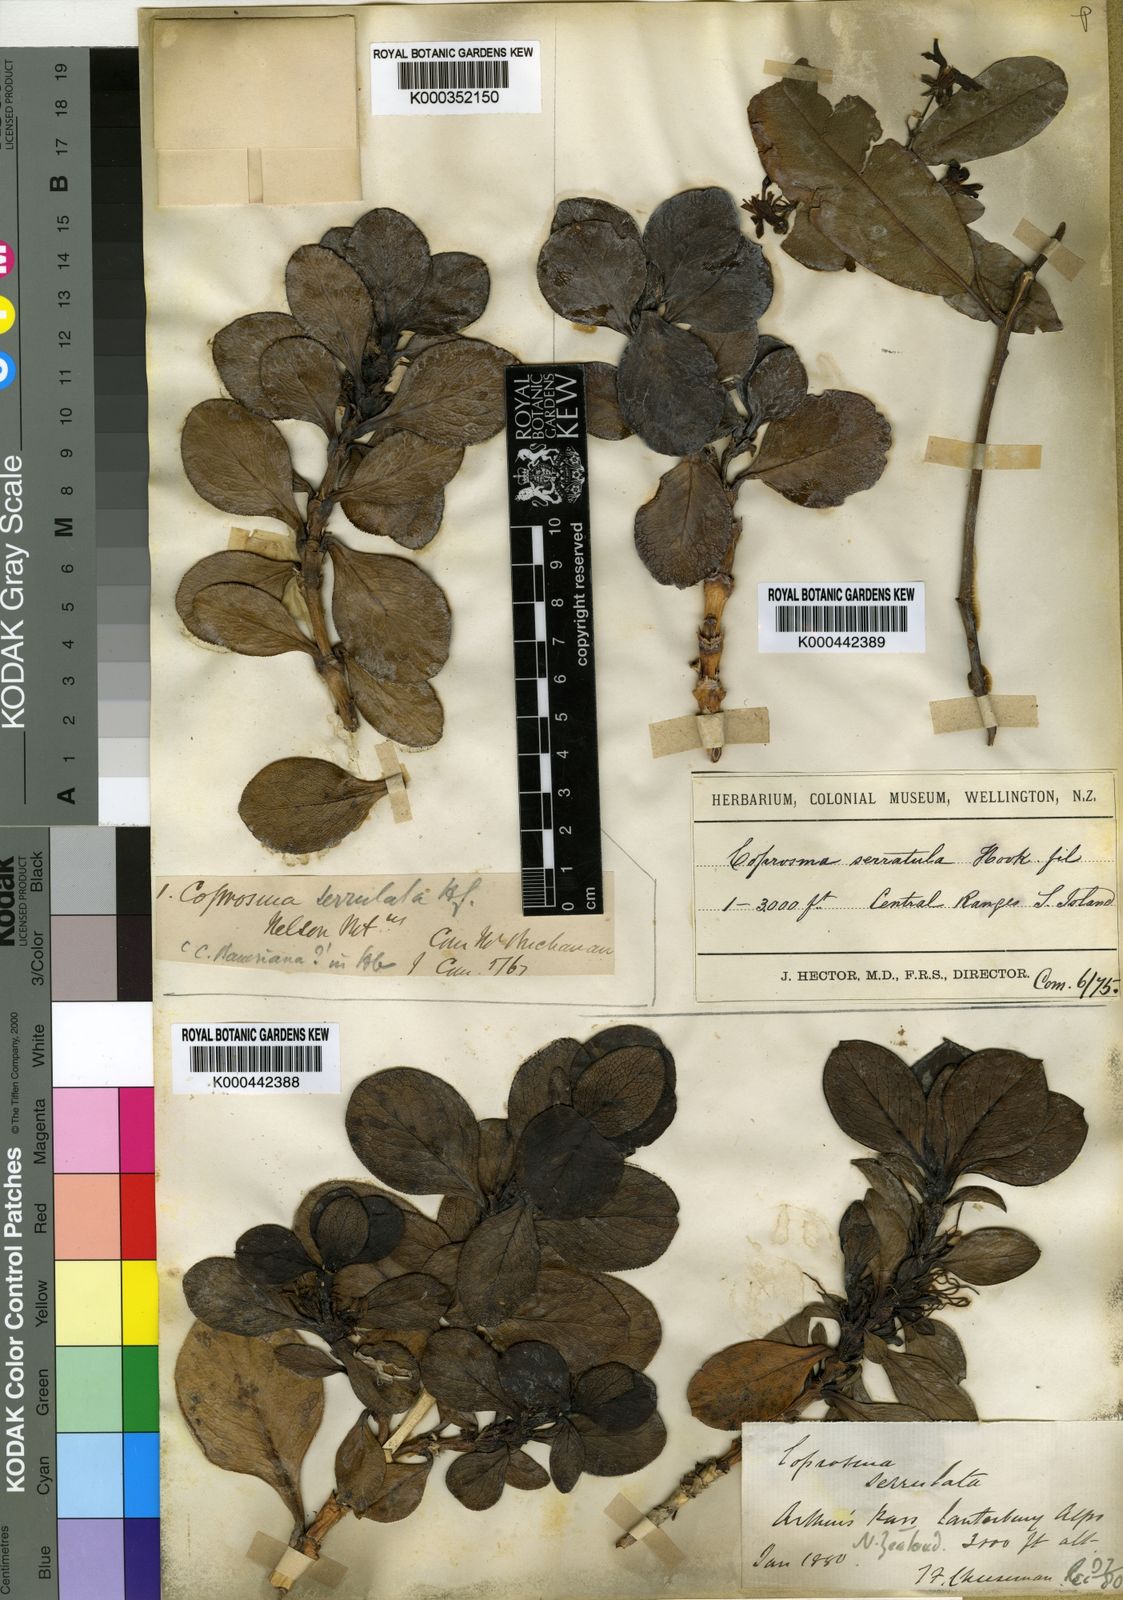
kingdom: Plantae
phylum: Tracheophyta
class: Magnoliopsida
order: Gentianales
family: Rubiaceae
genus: Coprosma
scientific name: Coprosma serrulata
